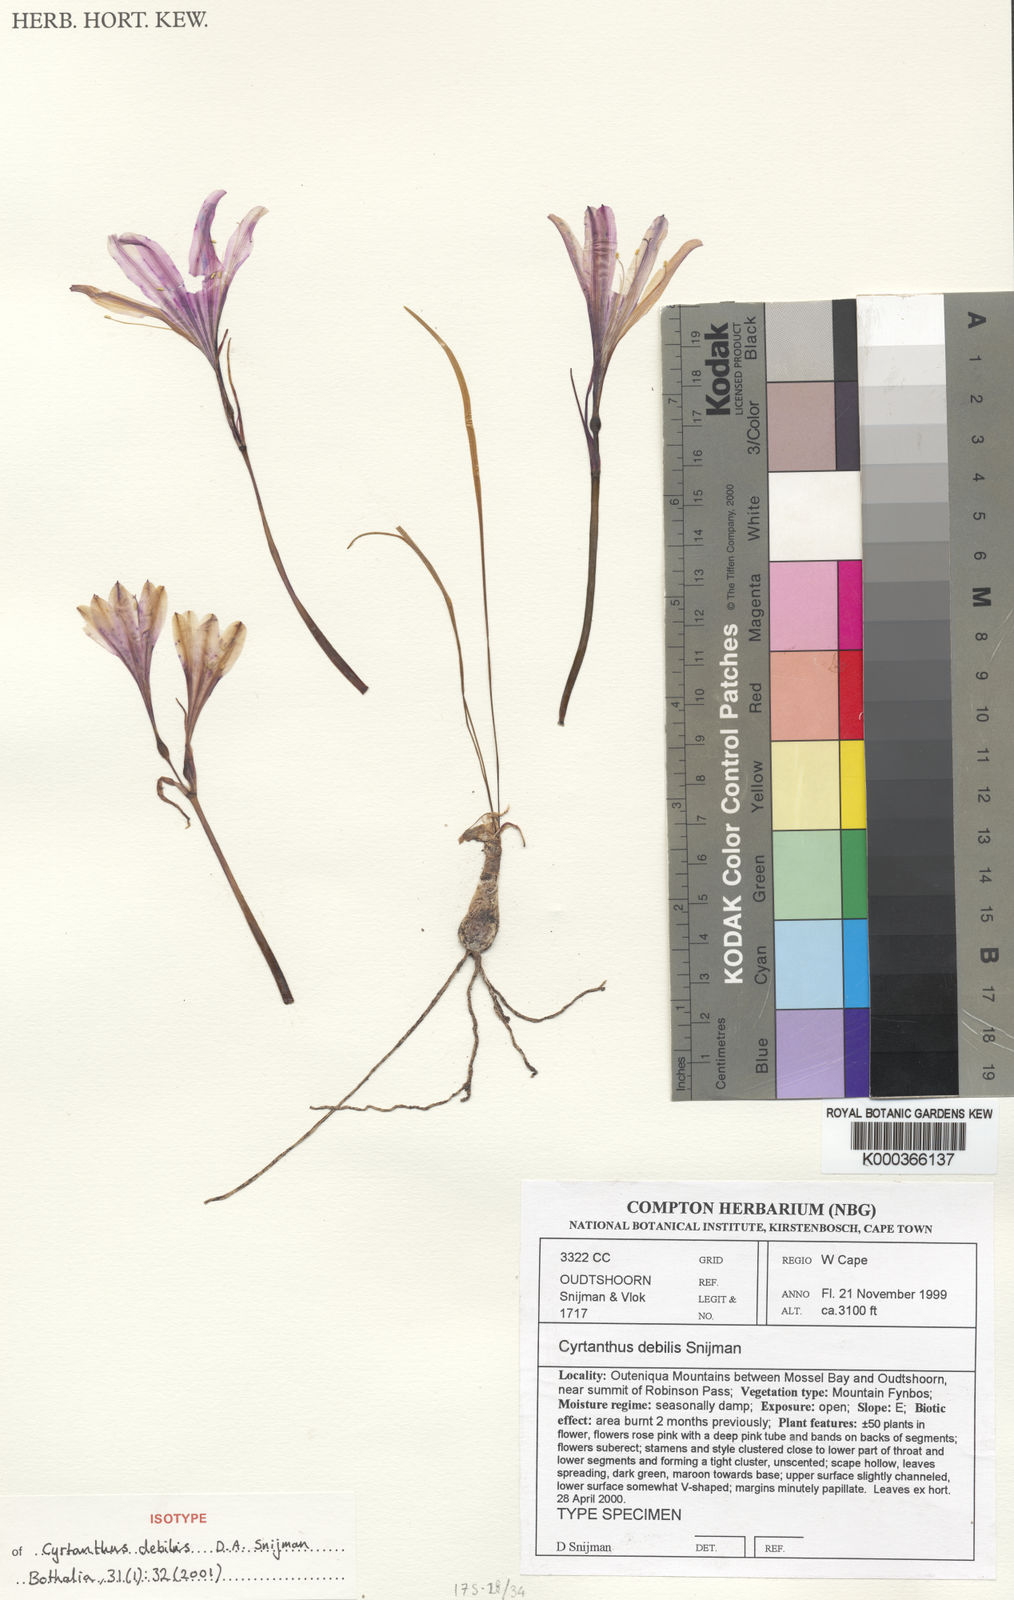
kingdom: Plantae
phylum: Tracheophyta
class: Liliopsida
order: Asparagales
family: Amaryllidaceae
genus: Cyrtanthus
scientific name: Cyrtanthus debilis
